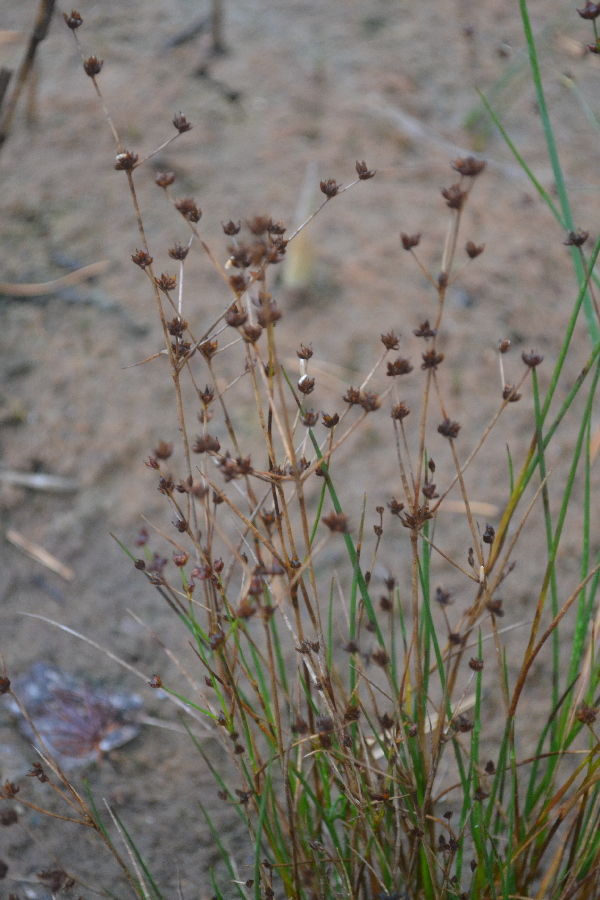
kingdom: Plantae
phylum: Tracheophyta
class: Liliopsida
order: Poales
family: Juncaceae
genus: Juncus
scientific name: Juncus articulatus
